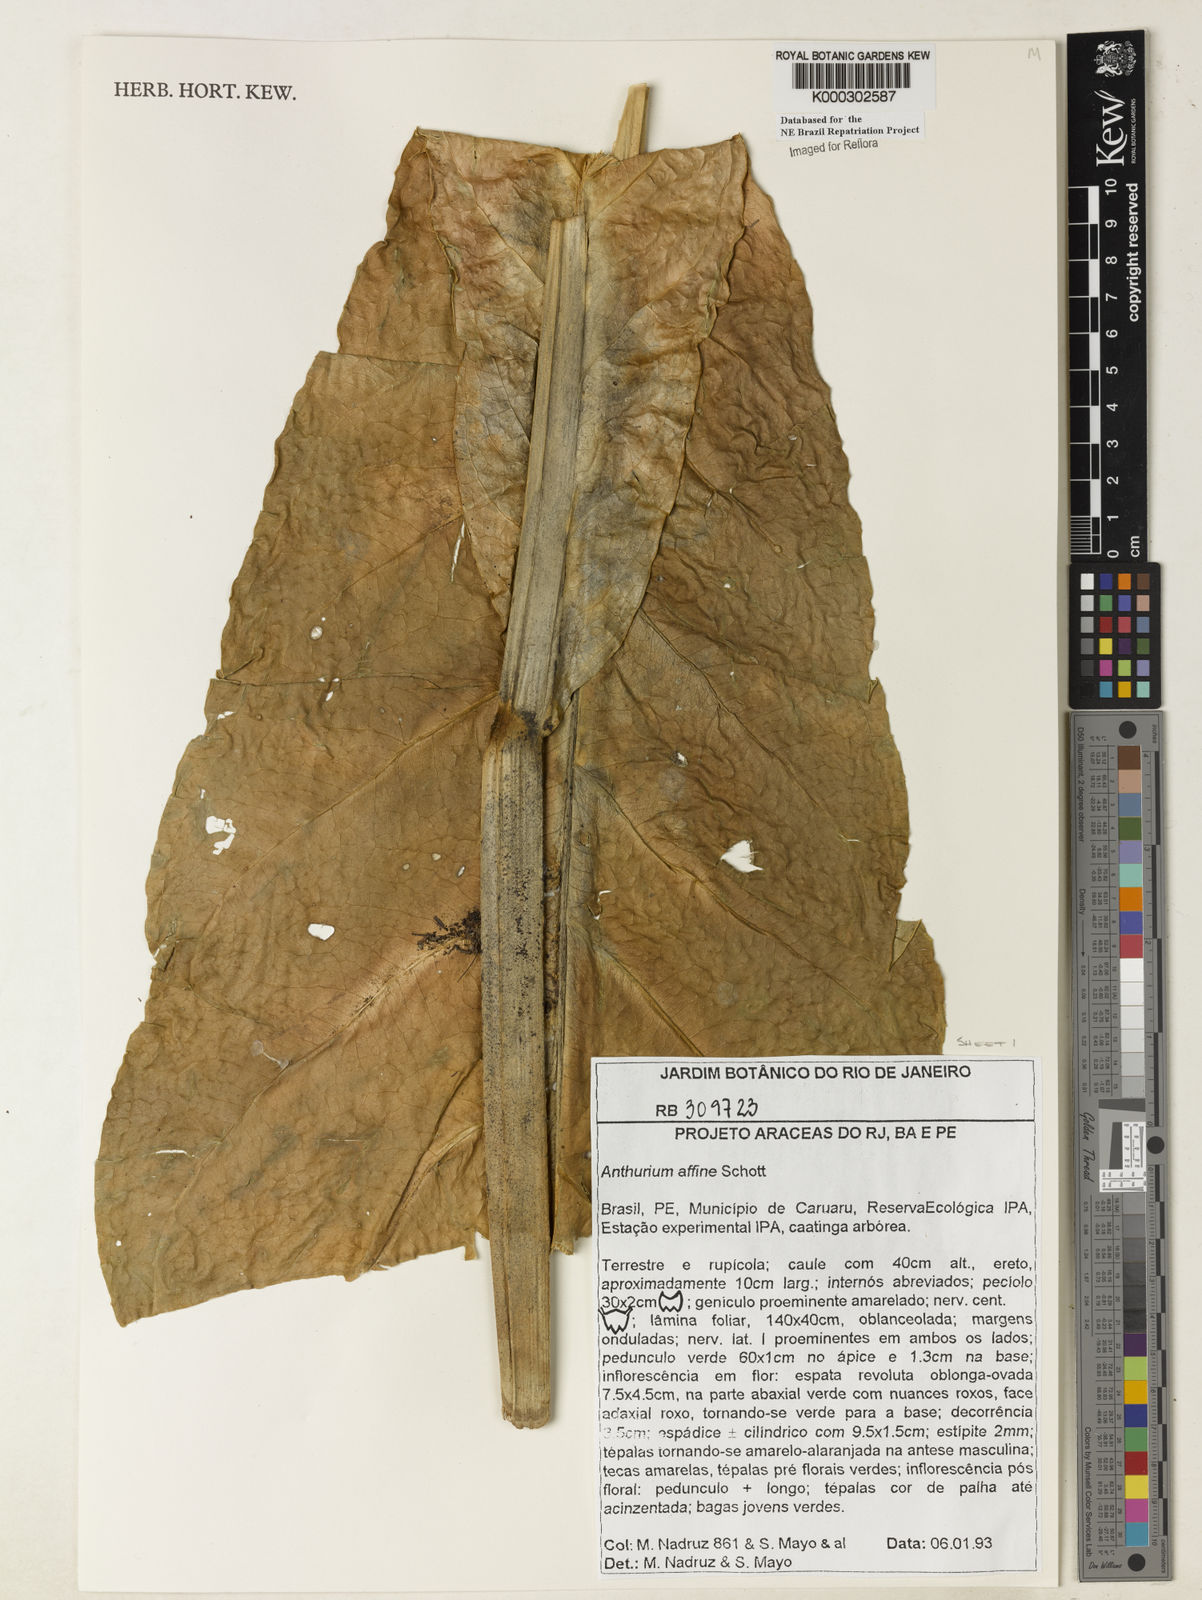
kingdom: Plantae
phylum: Tracheophyta
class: Liliopsida
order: Alismatales
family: Araceae
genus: Anthurium
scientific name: Anthurium affine
